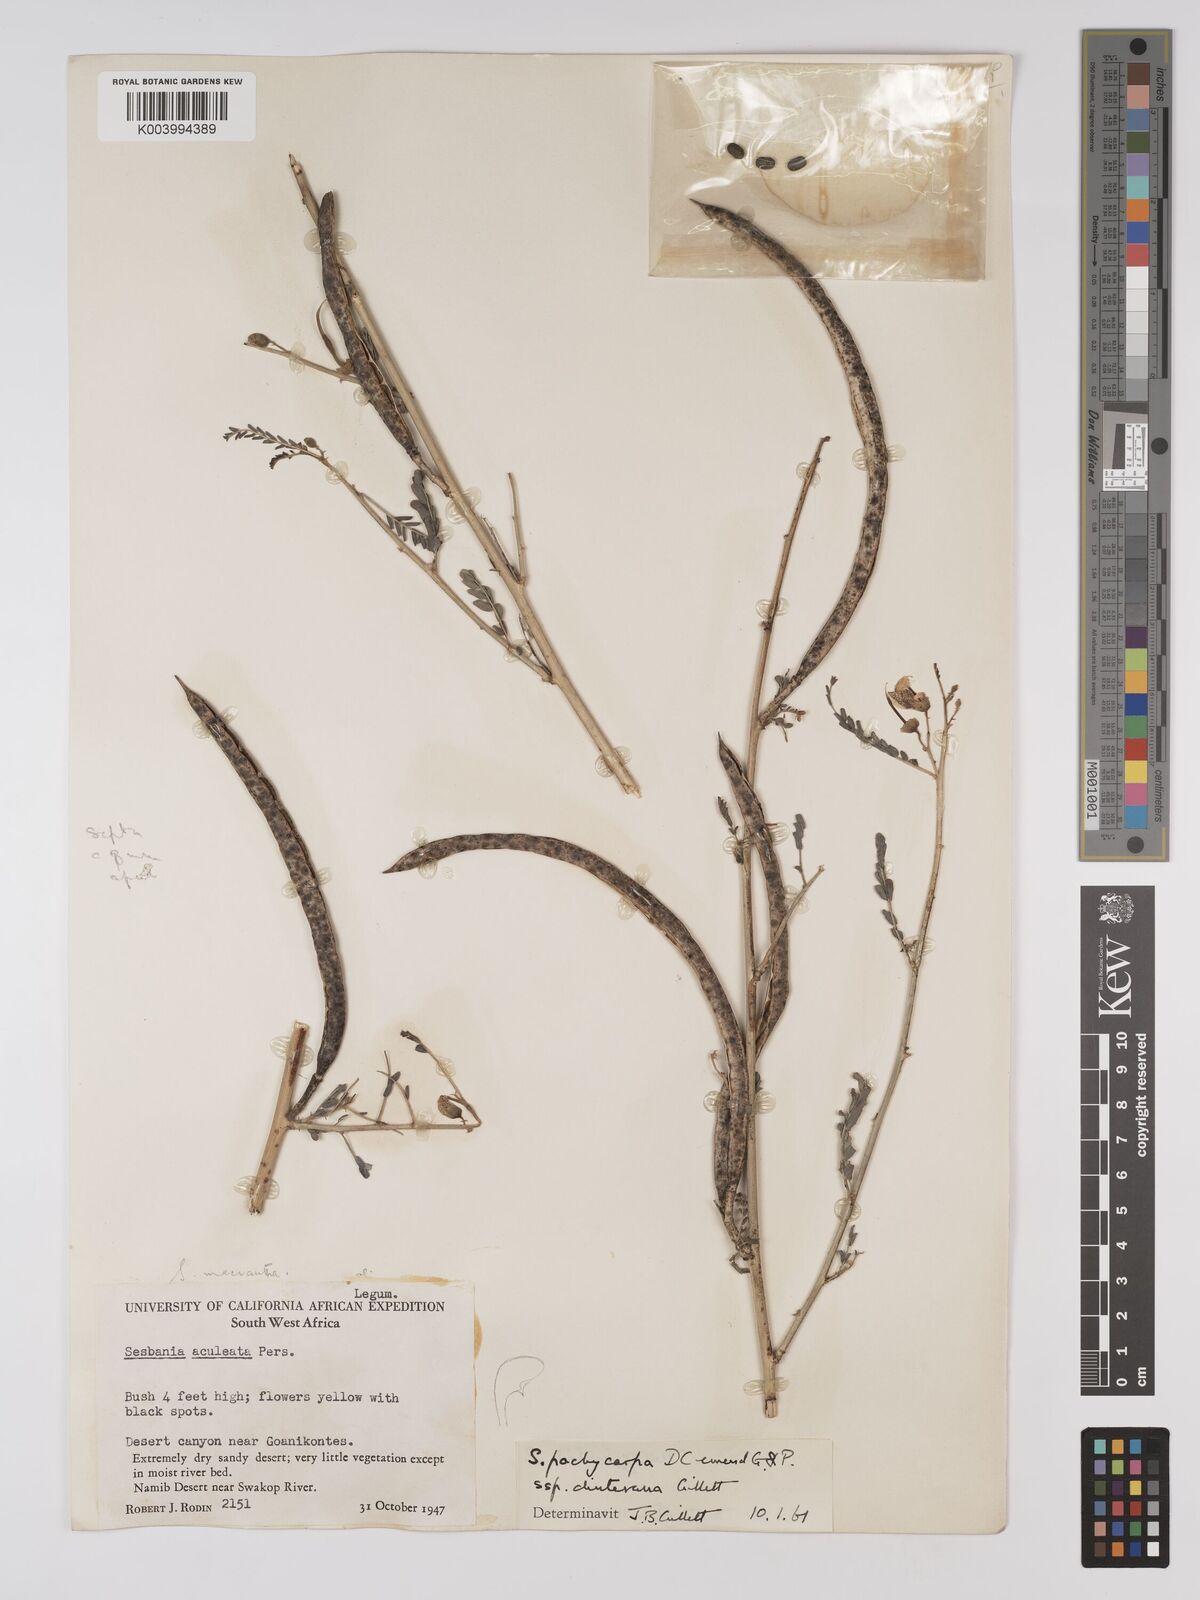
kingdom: Plantae
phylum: Tracheophyta
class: Magnoliopsida
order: Fabales
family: Fabaceae
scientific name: Fabaceae
